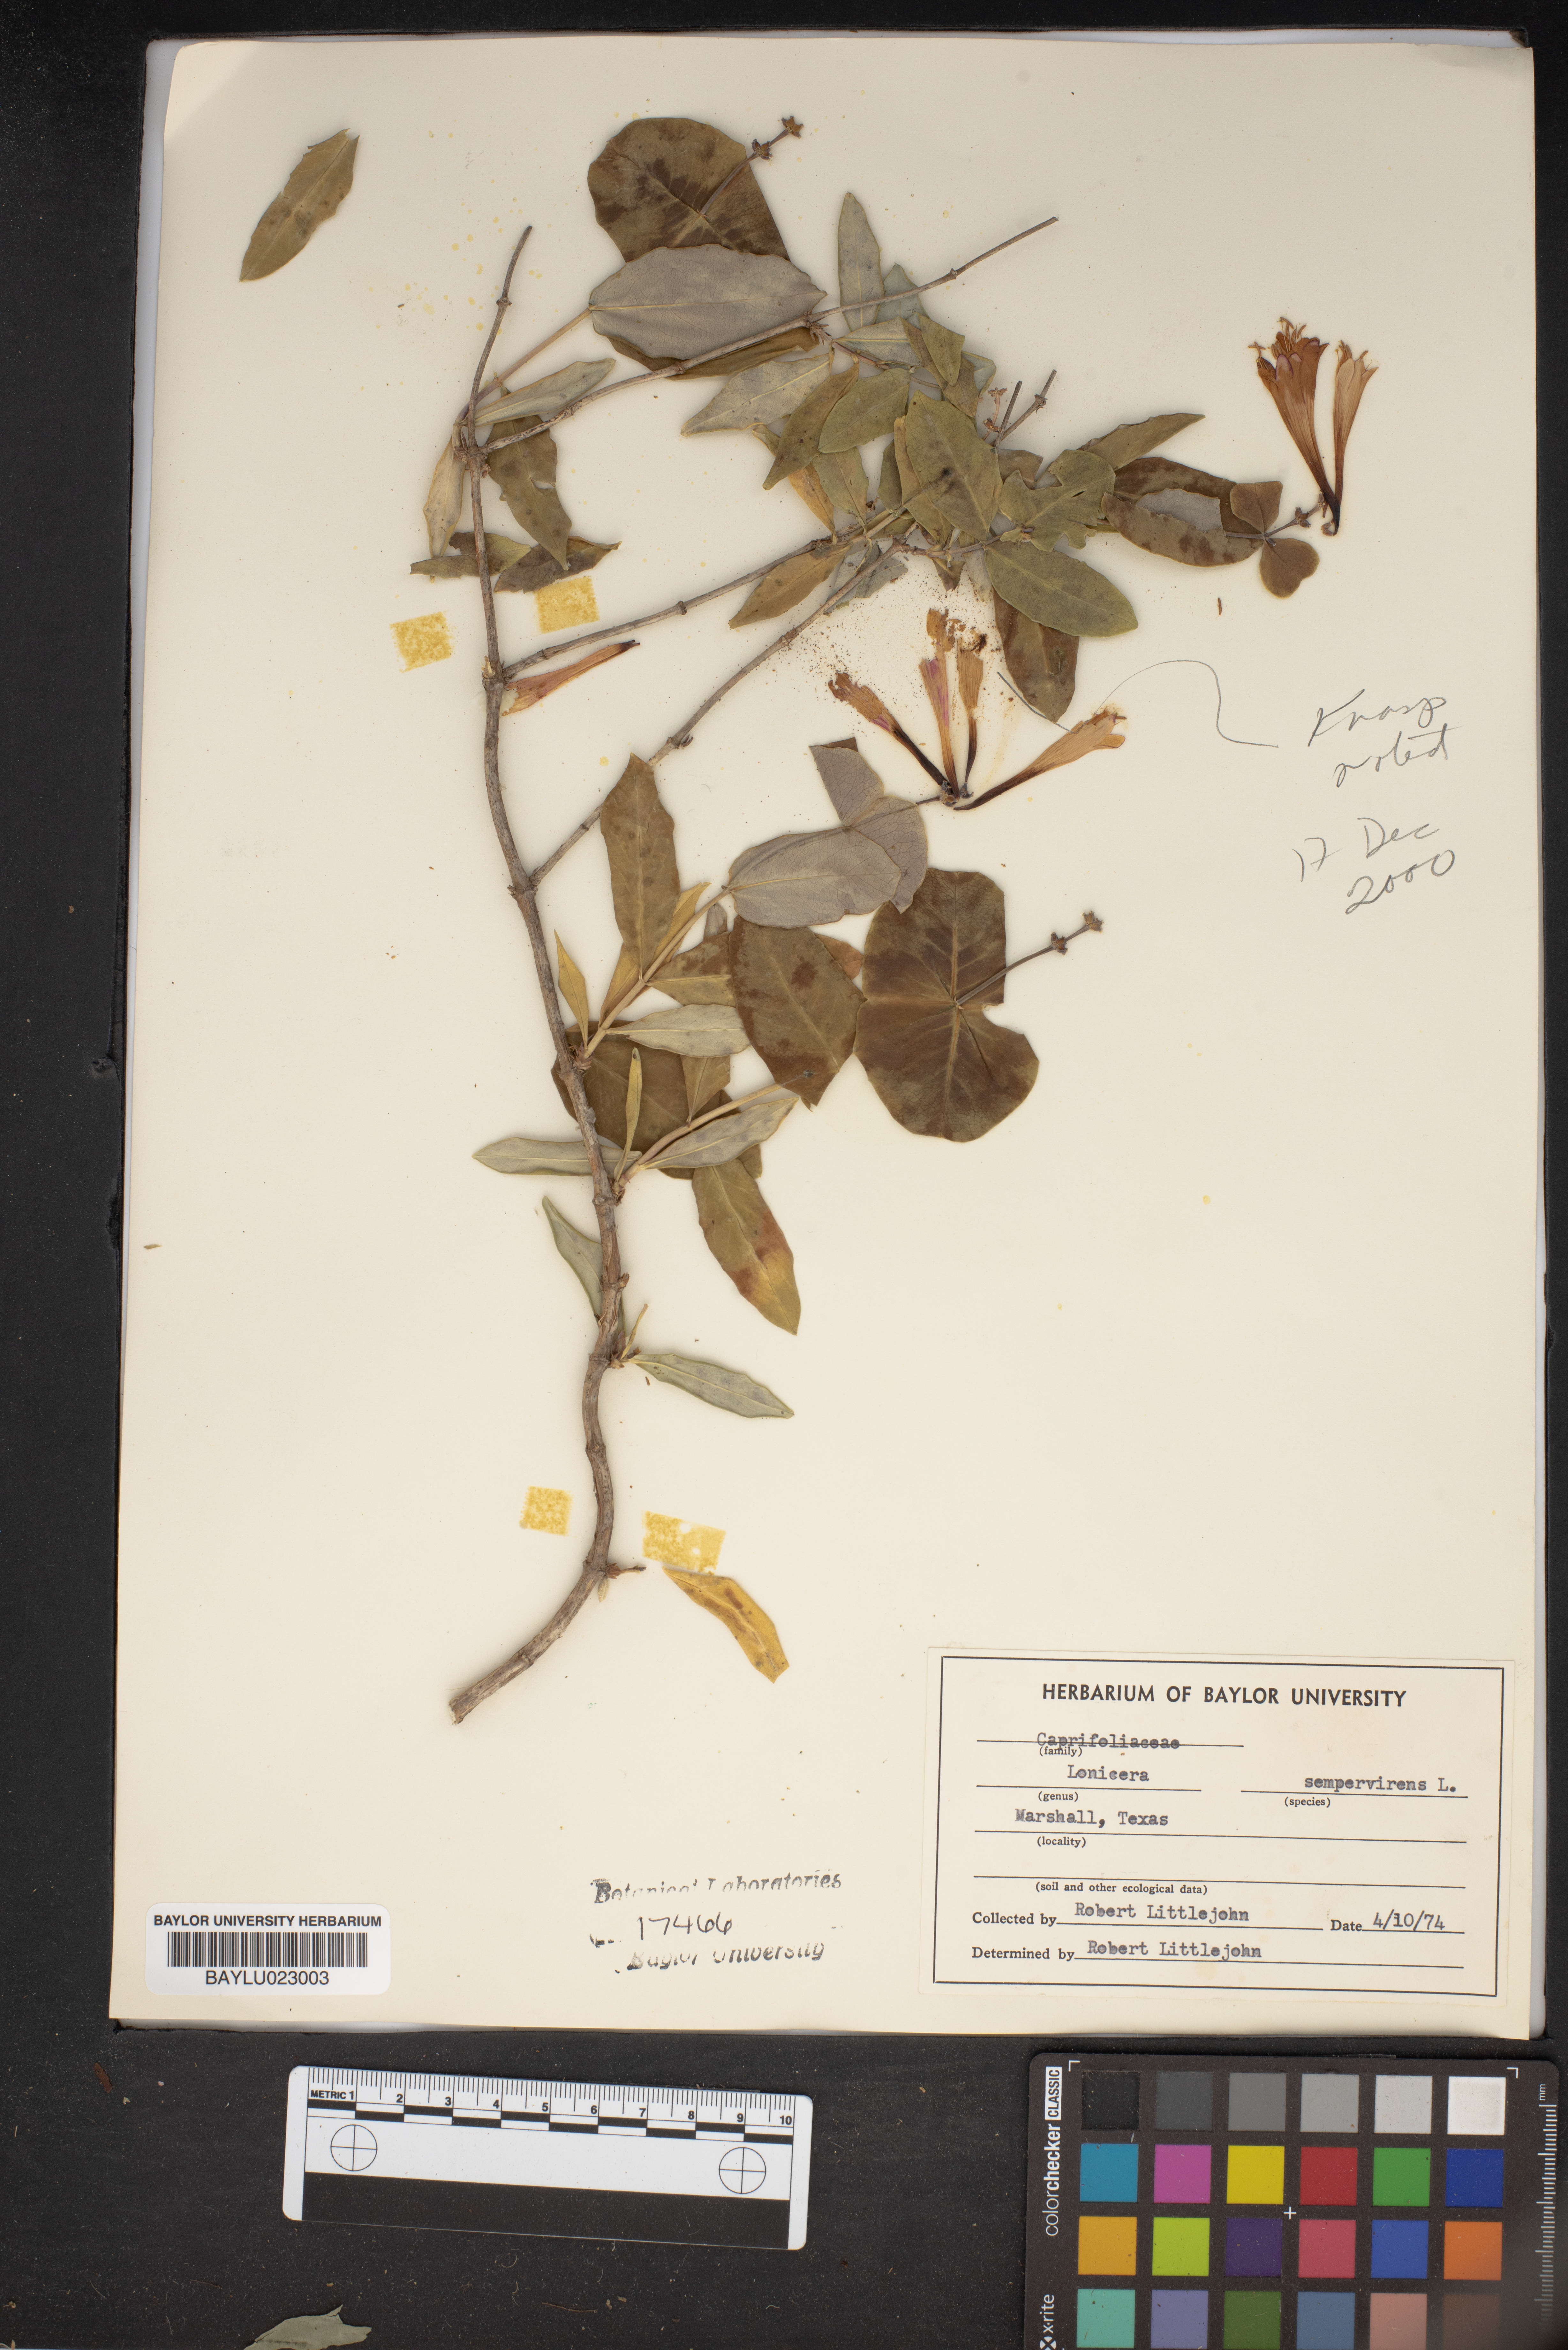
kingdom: Plantae
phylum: Tracheophyta
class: Magnoliopsida
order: Dipsacales
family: Caprifoliaceae
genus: Lonicera
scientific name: Lonicera sempervirens
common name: Coral honeysuckle
